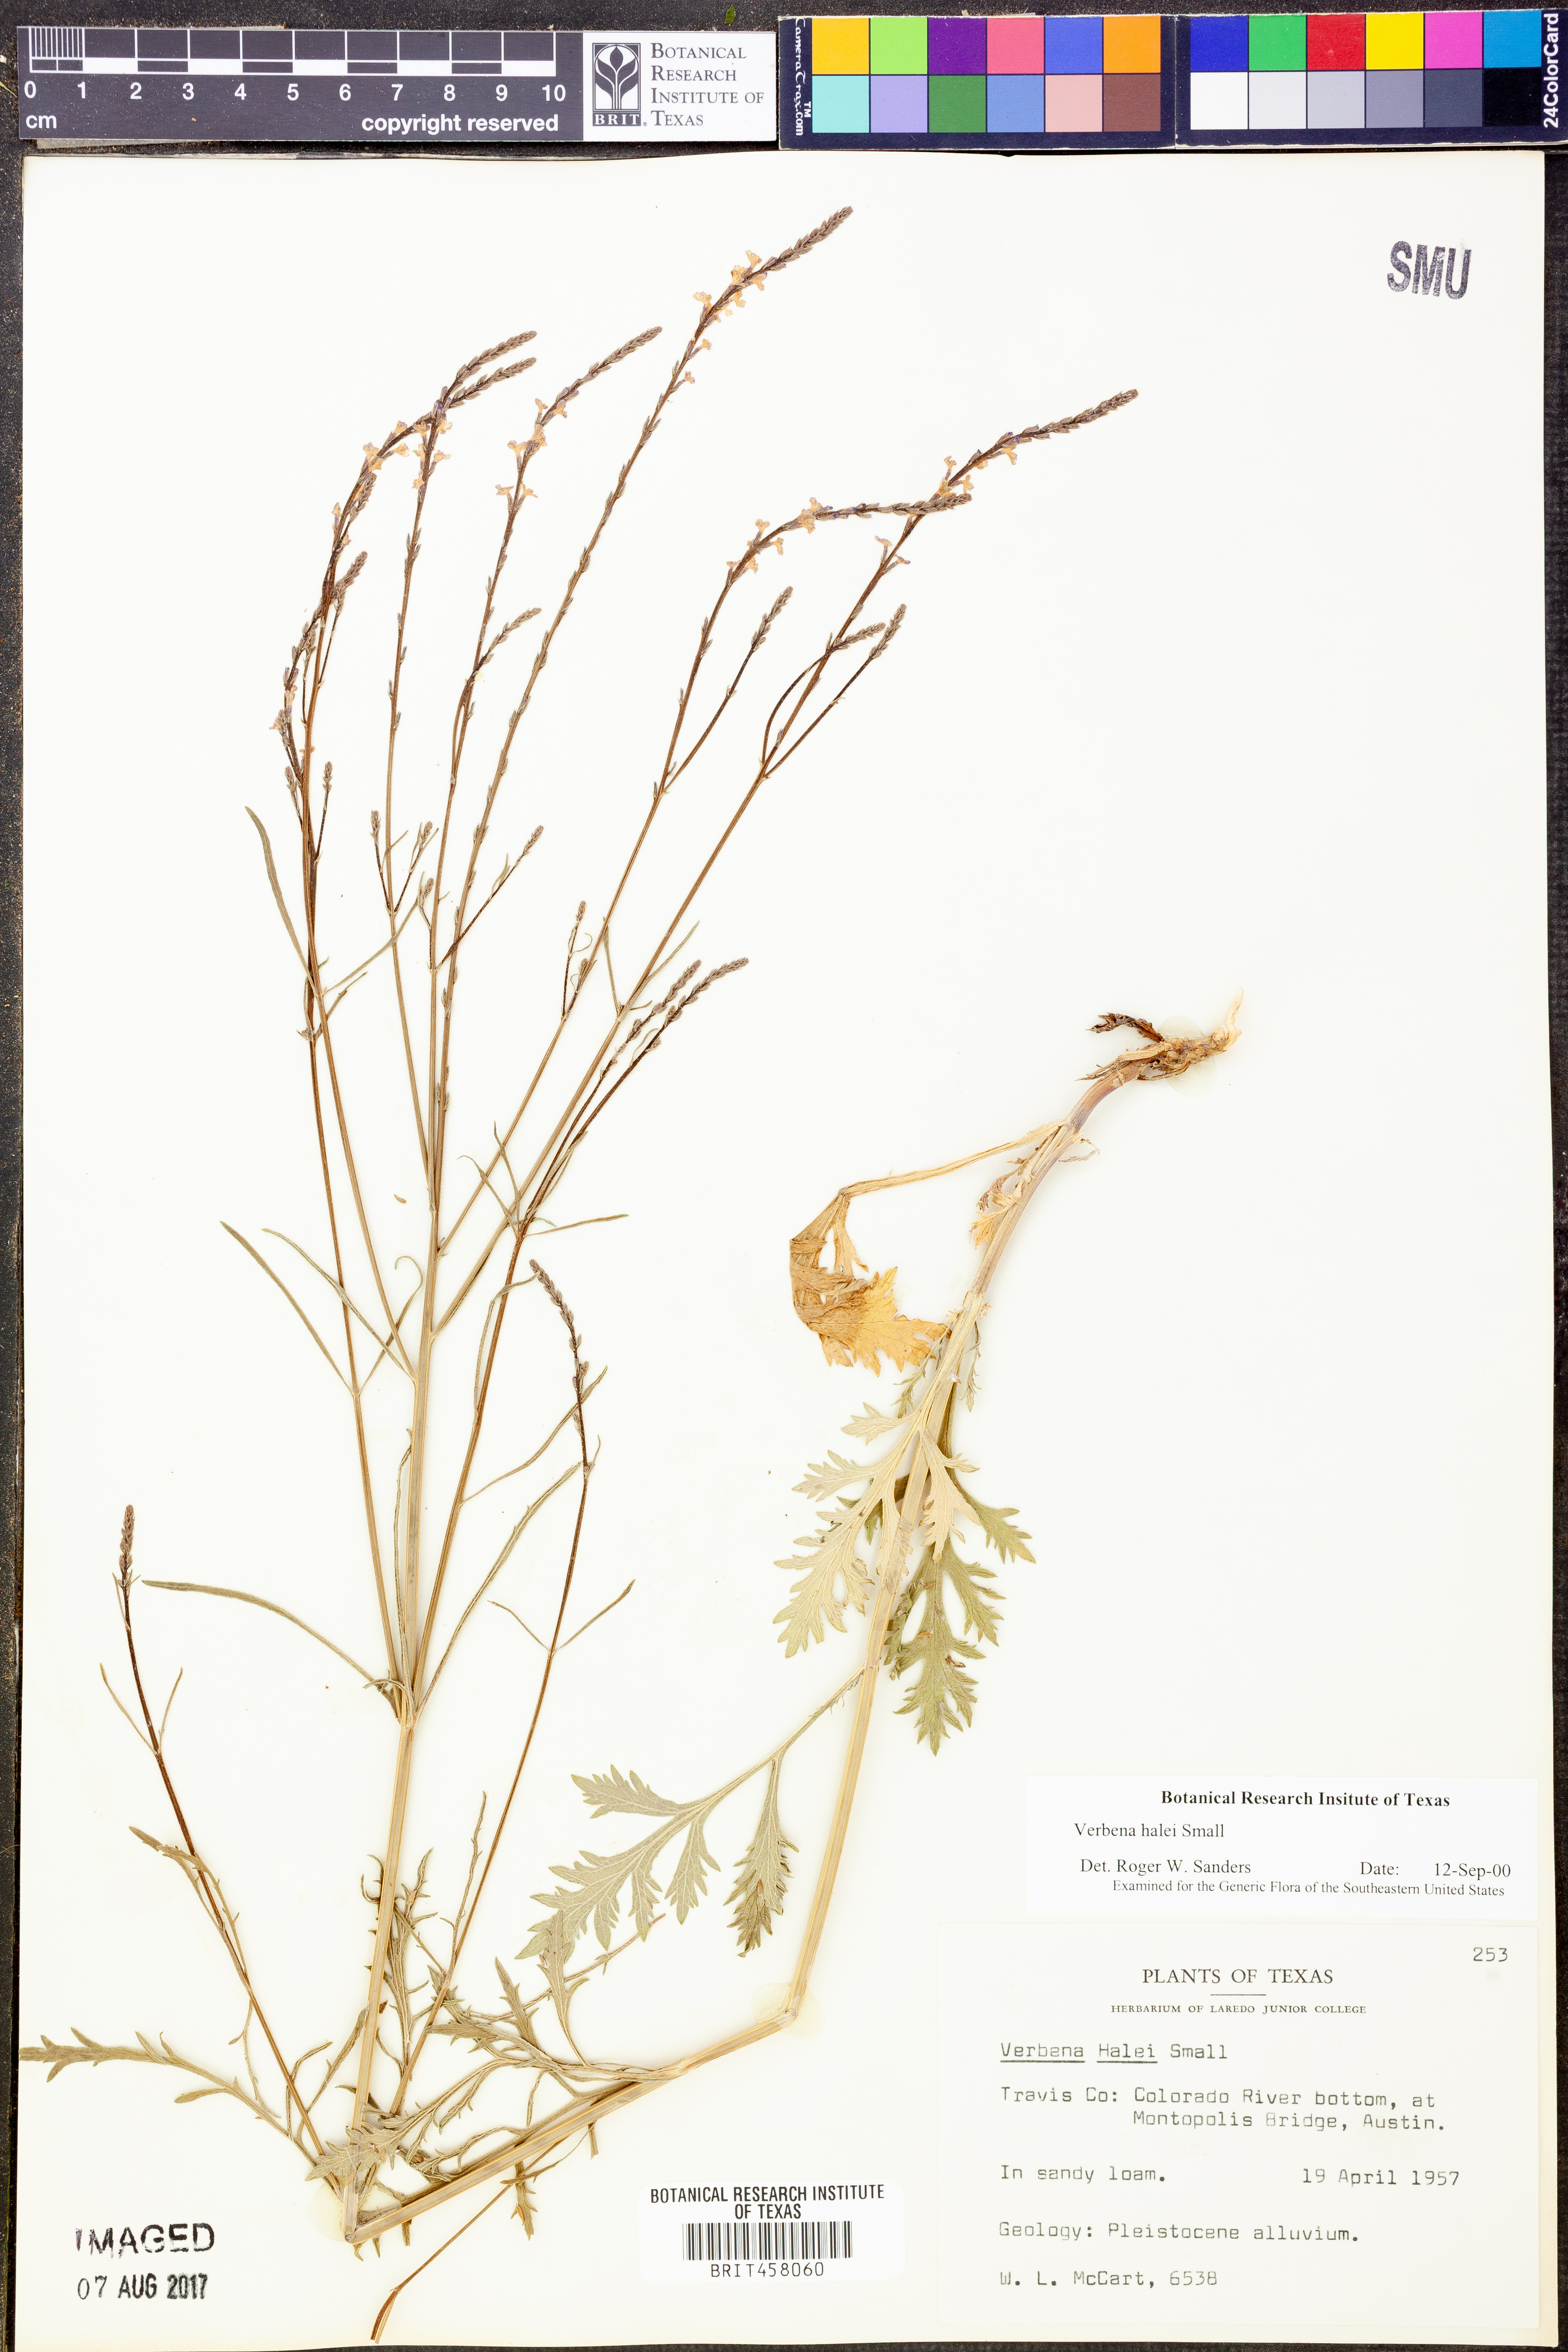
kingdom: Plantae
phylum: Tracheophyta
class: Magnoliopsida
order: Lamiales
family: Verbenaceae
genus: Verbena
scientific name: Verbena halei
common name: Texas vervain
